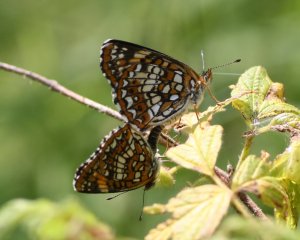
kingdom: Animalia
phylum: Arthropoda
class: Insecta
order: Lepidoptera
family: Nymphalidae
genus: Chlosyne
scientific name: Chlosyne harrisii
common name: Harris's Checkerspot
